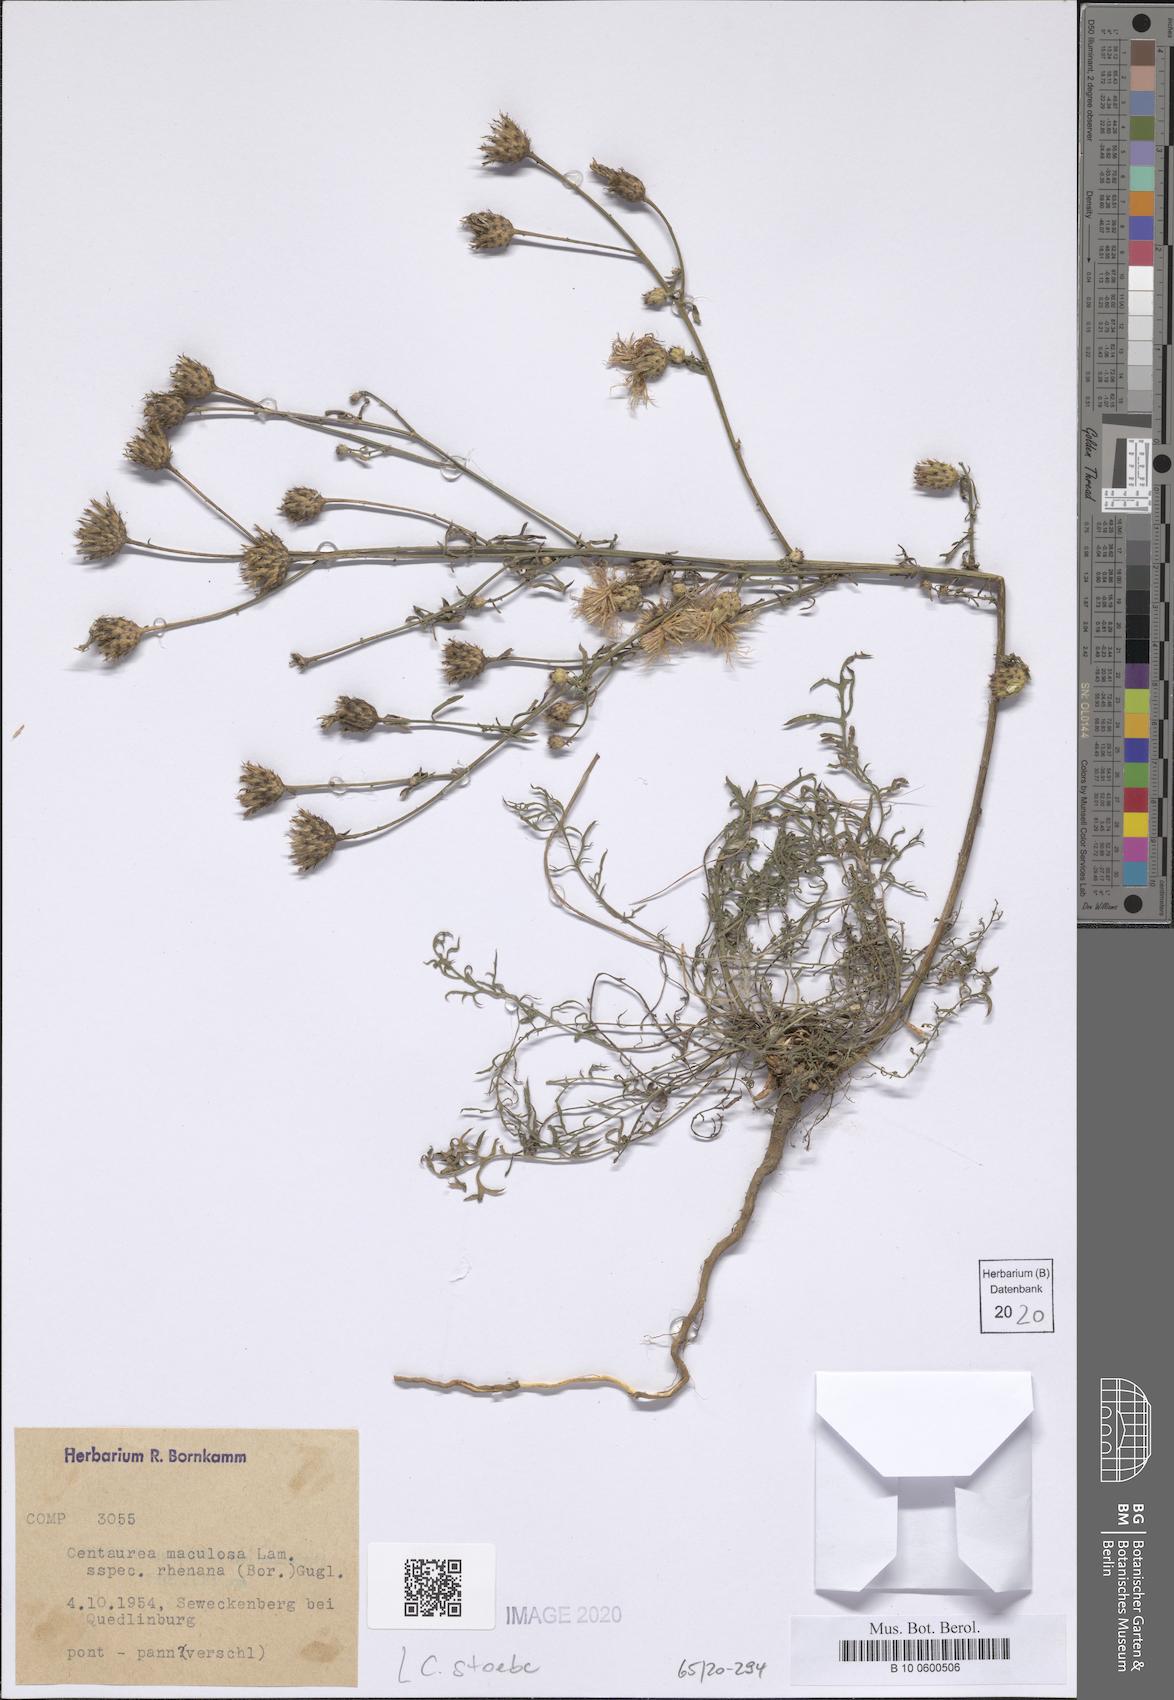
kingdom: Plantae
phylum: Tracheophyta
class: Magnoliopsida
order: Asterales
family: Asteraceae
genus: Centaurea
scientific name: Centaurea stoebe
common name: Spotted knapweed
